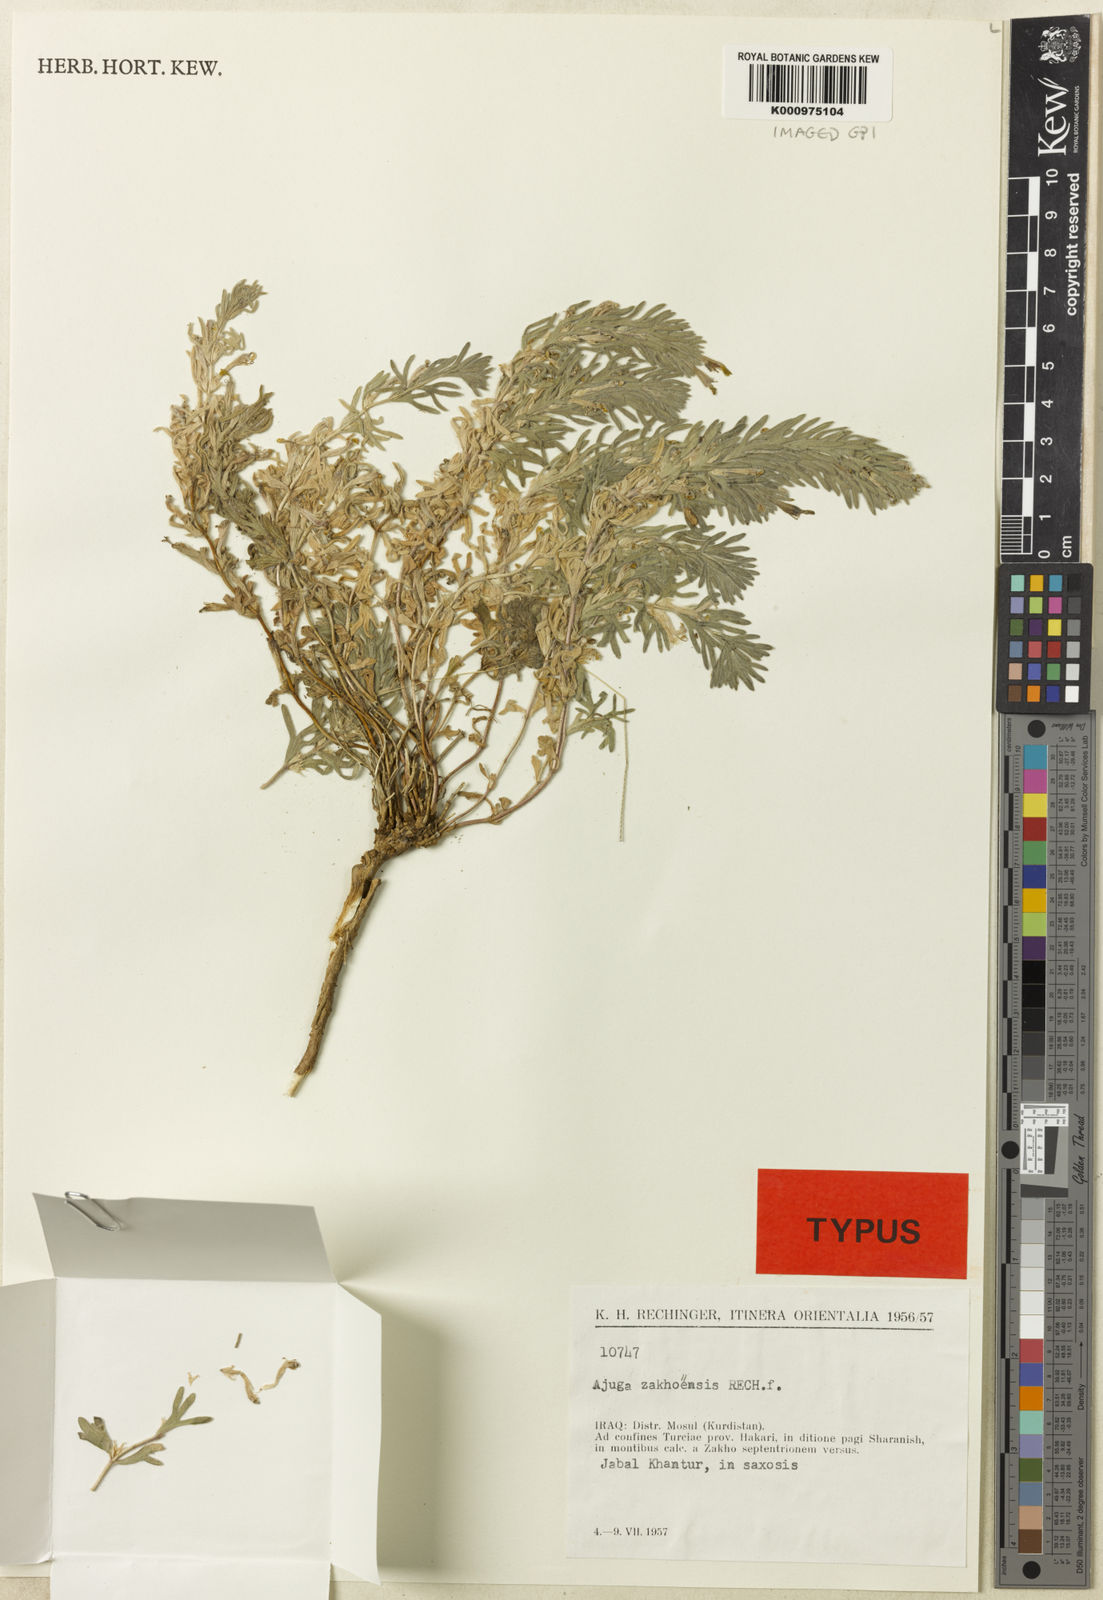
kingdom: Plantae
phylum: Tracheophyta
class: Magnoliopsida
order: Lamiales
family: Lamiaceae
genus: Ajuga
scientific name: Ajuga zakhoensis
